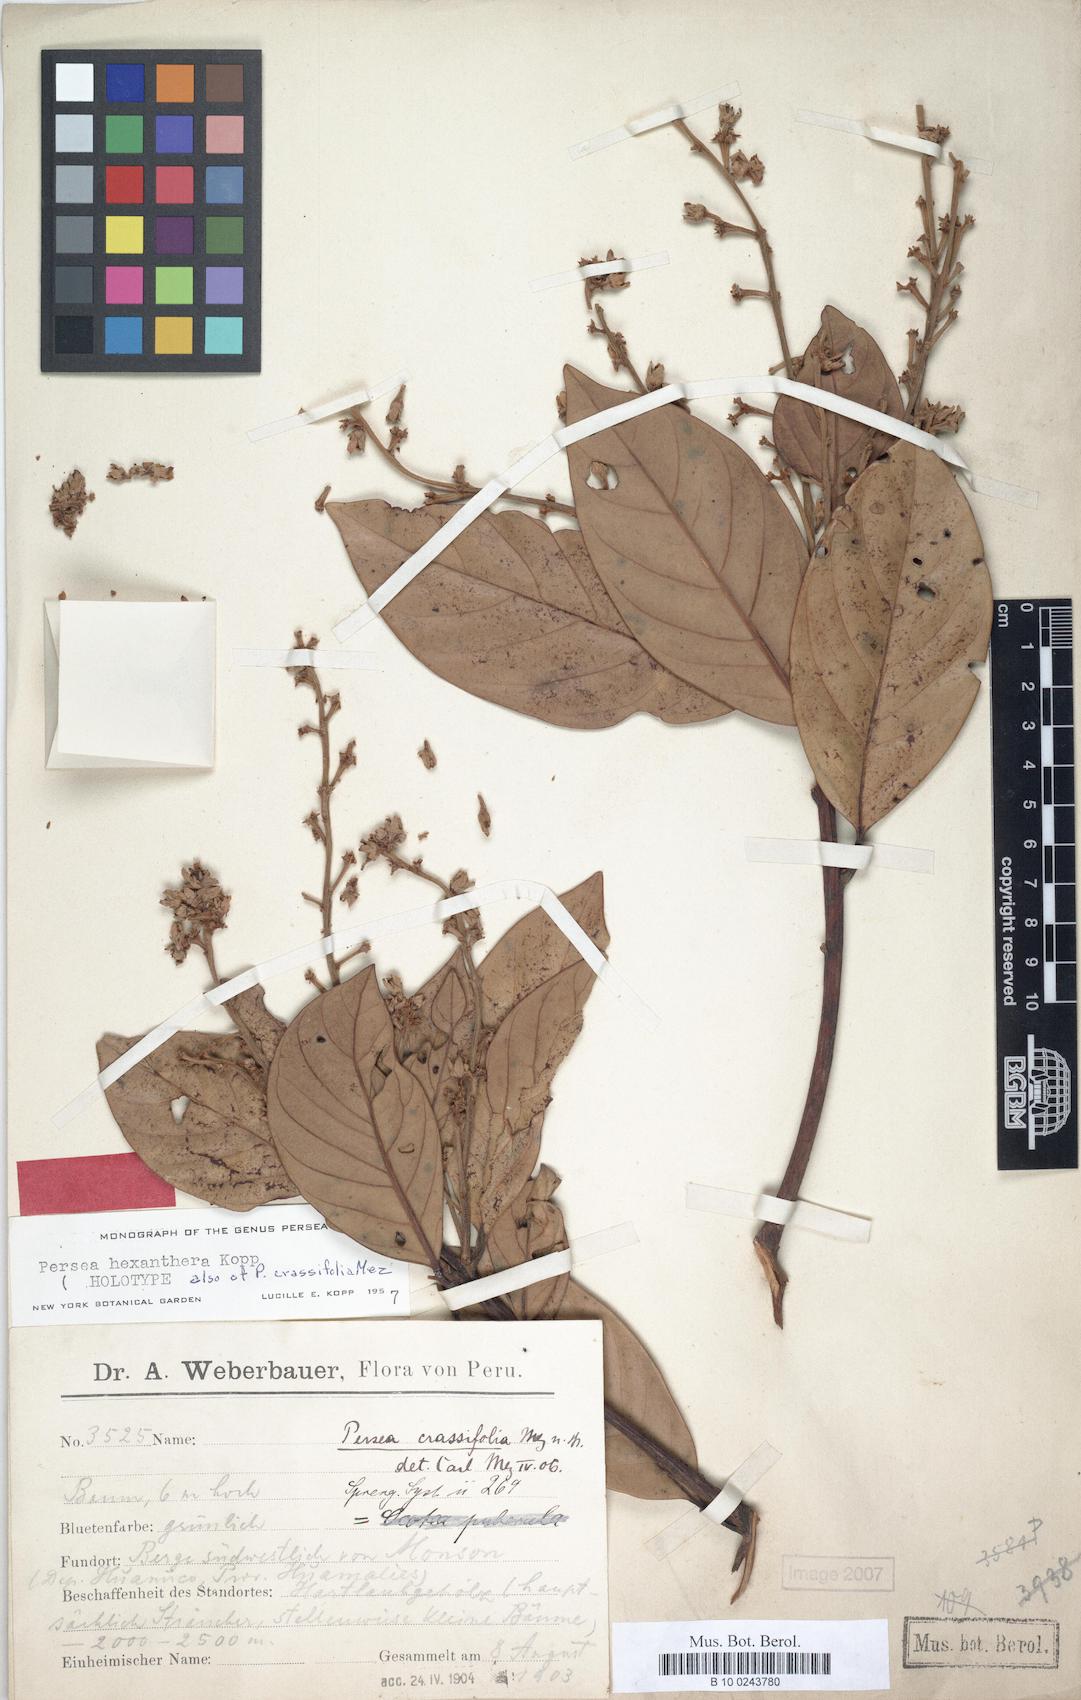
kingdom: Plantae
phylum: Tracheophyta
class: Magnoliopsida
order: Laurales
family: Lauraceae
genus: Persea
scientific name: Persea hexanthera
